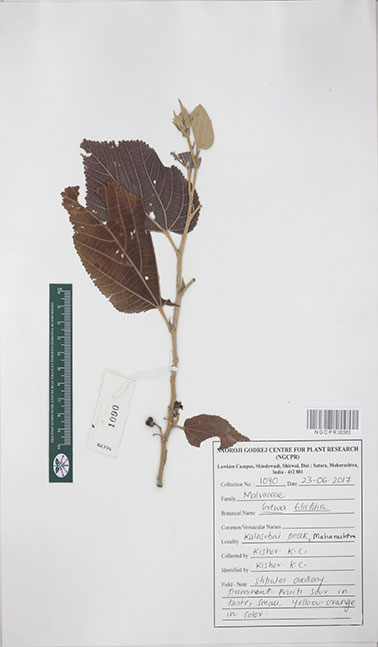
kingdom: Plantae
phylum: Tracheophyta
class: Magnoliopsida
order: Malvales
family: Malvaceae
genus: Grewia
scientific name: Grewia tiliifolia
